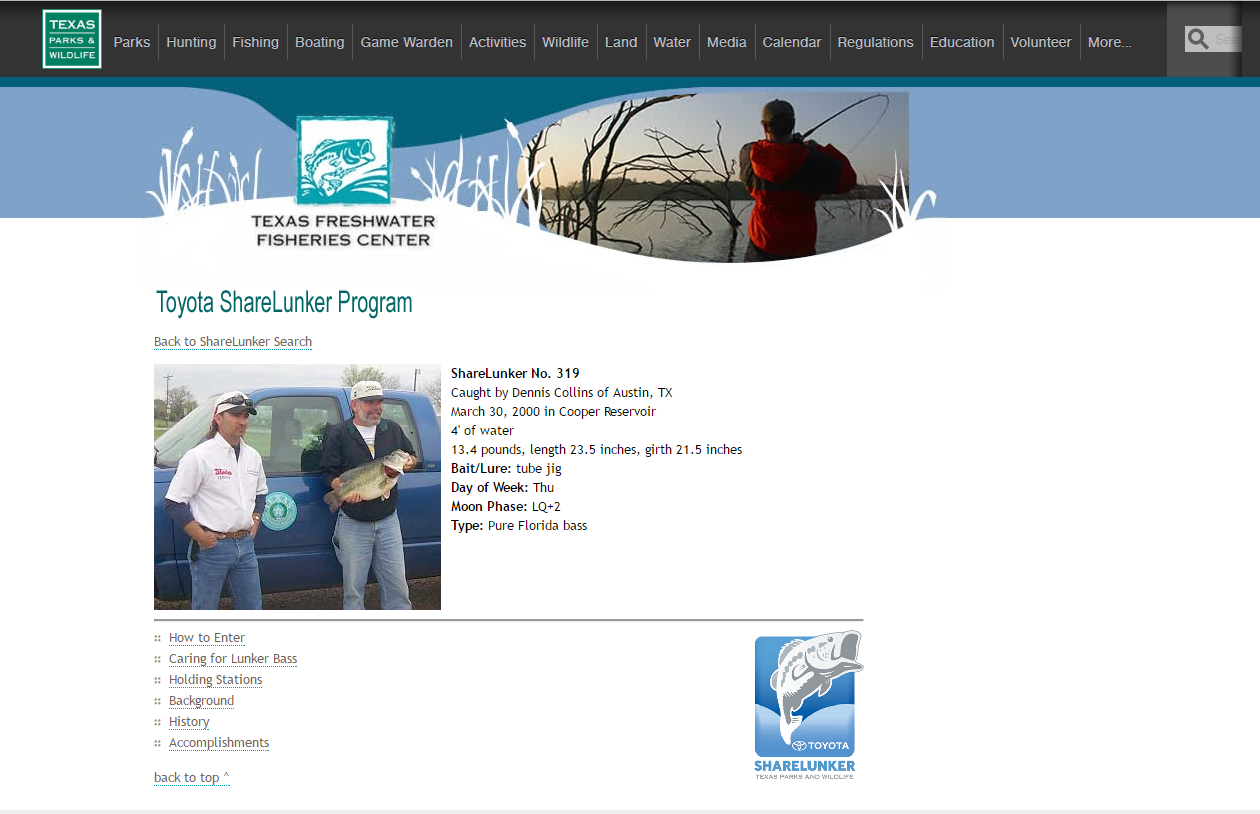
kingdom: Animalia
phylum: Chordata
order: Perciformes
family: Centrarchidae
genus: Micropterus
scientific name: Micropterus salmoides
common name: Largemouth bass
